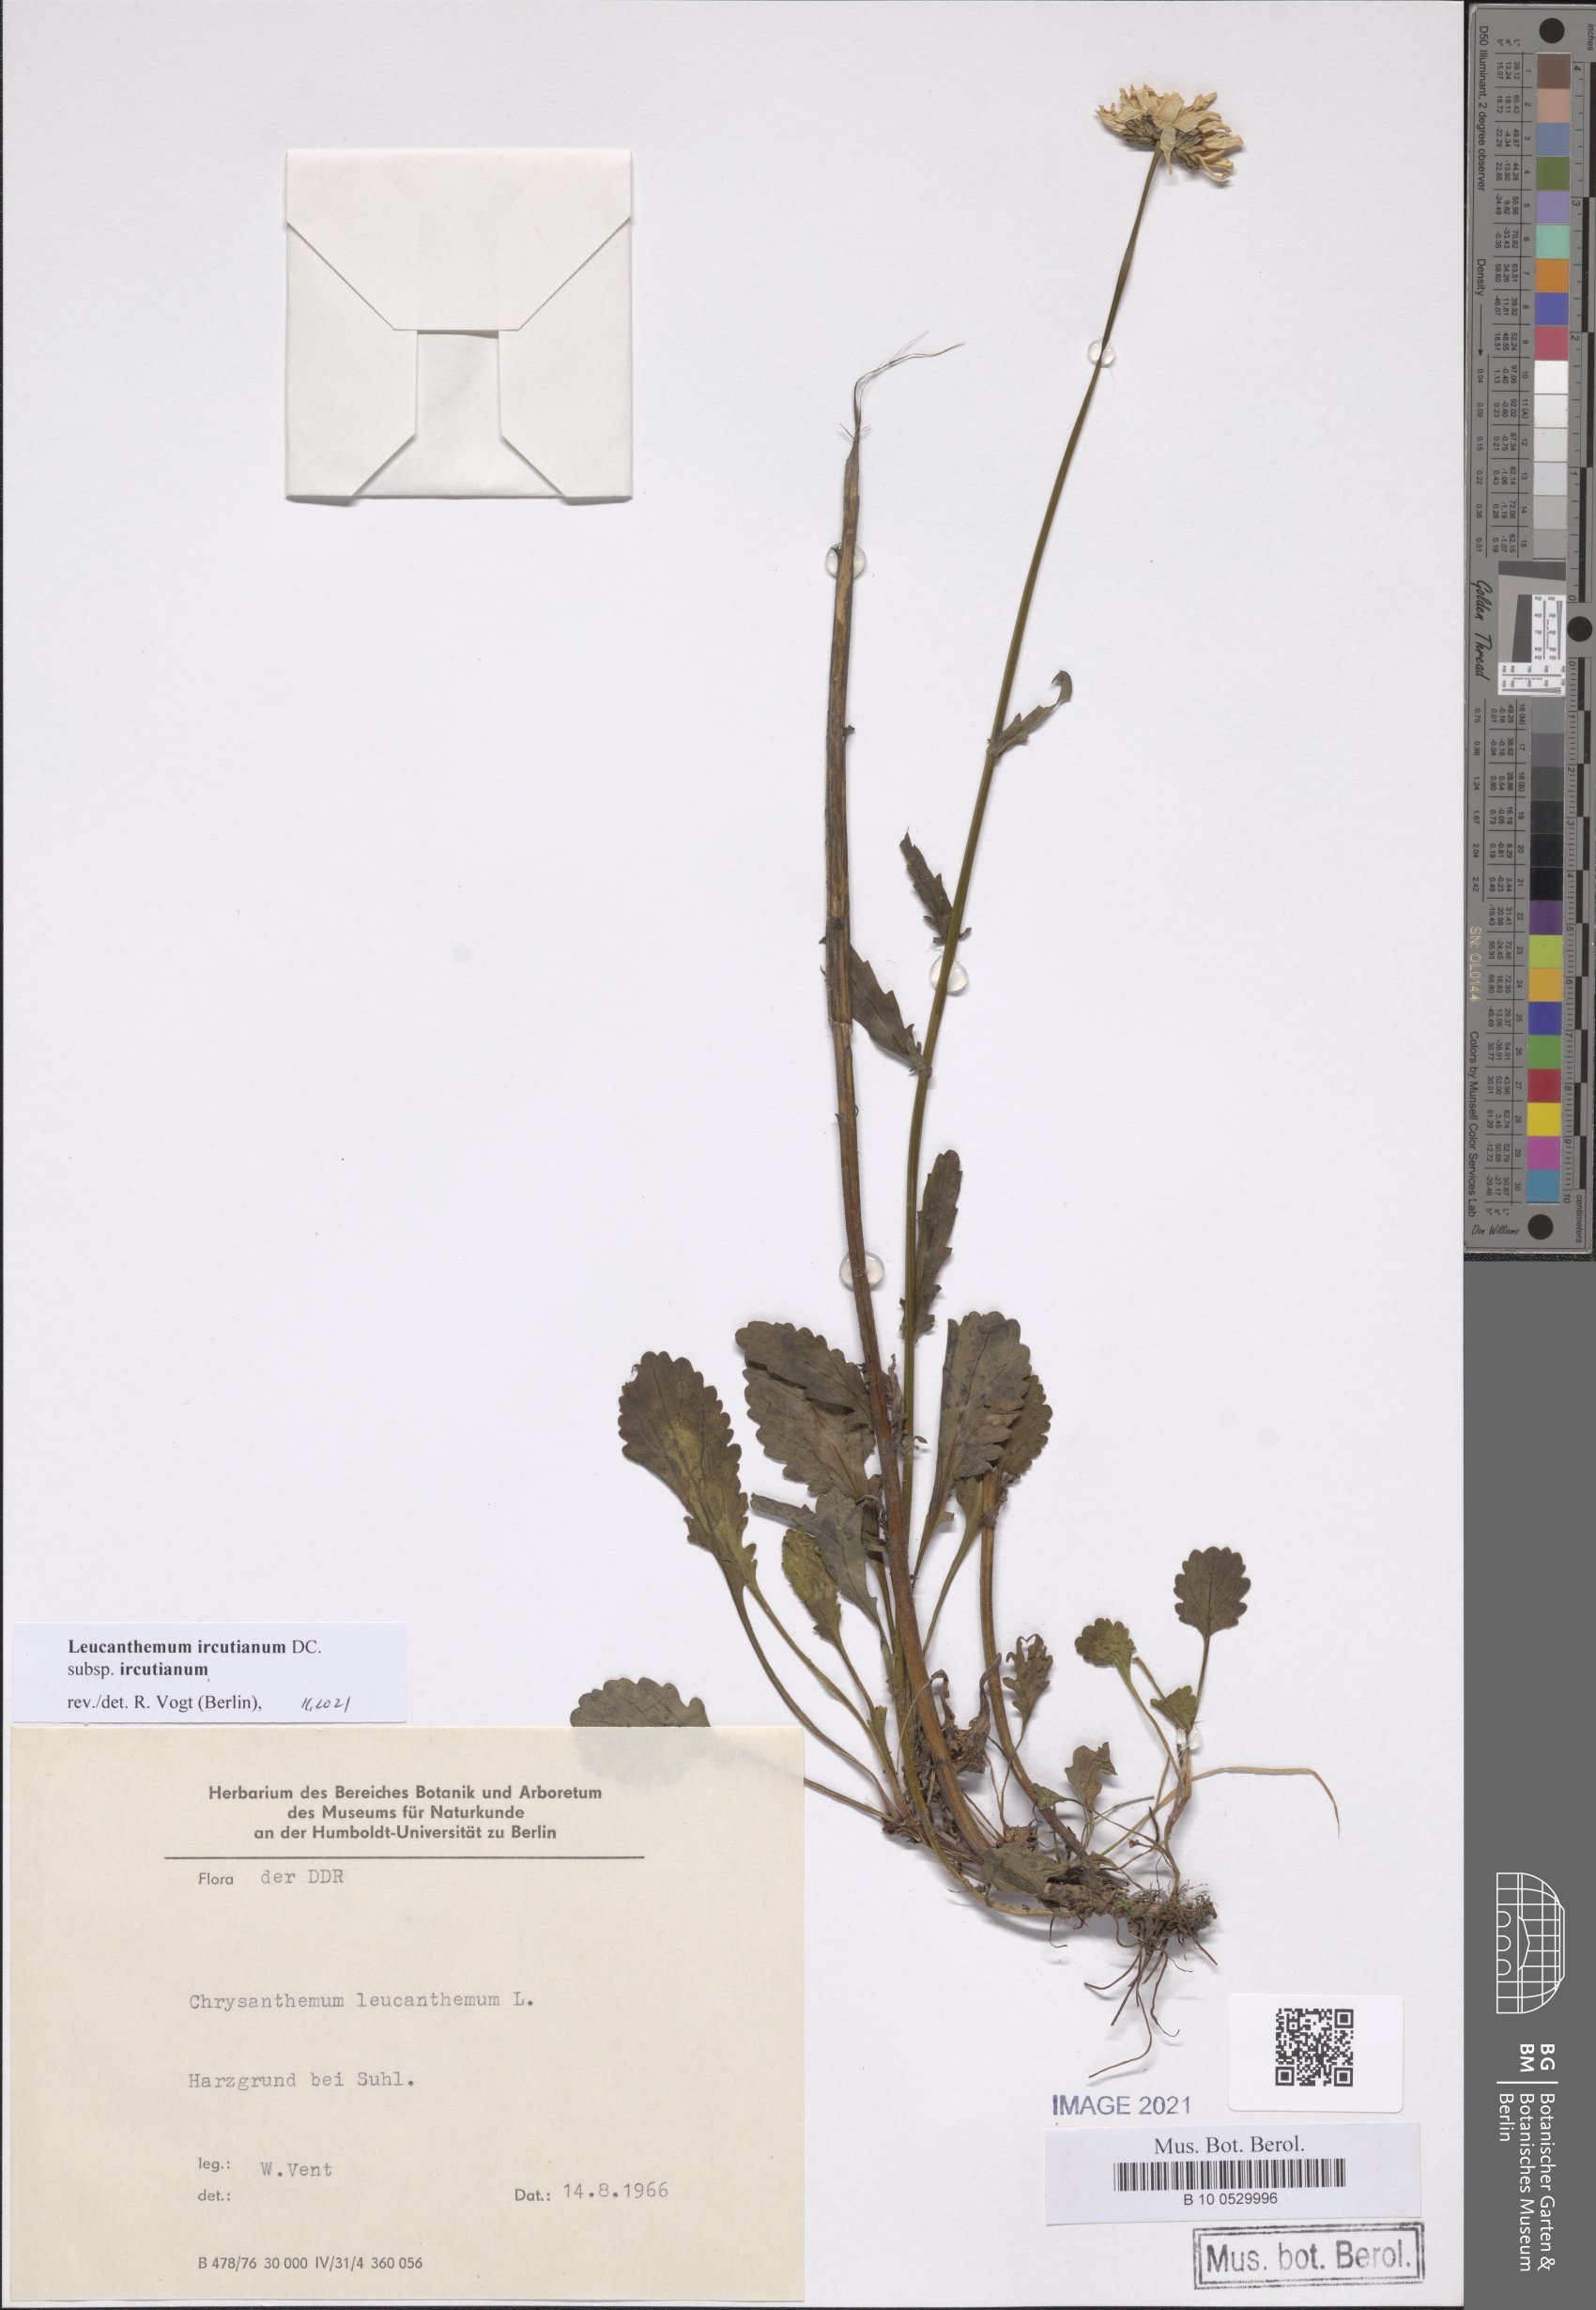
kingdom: Plantae
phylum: Tracheophyta
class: Magnoliopsida
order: Asterales
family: Asteraceae
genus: Leucanthemum
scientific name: Leucanthemum ircutianum
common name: Daisy
